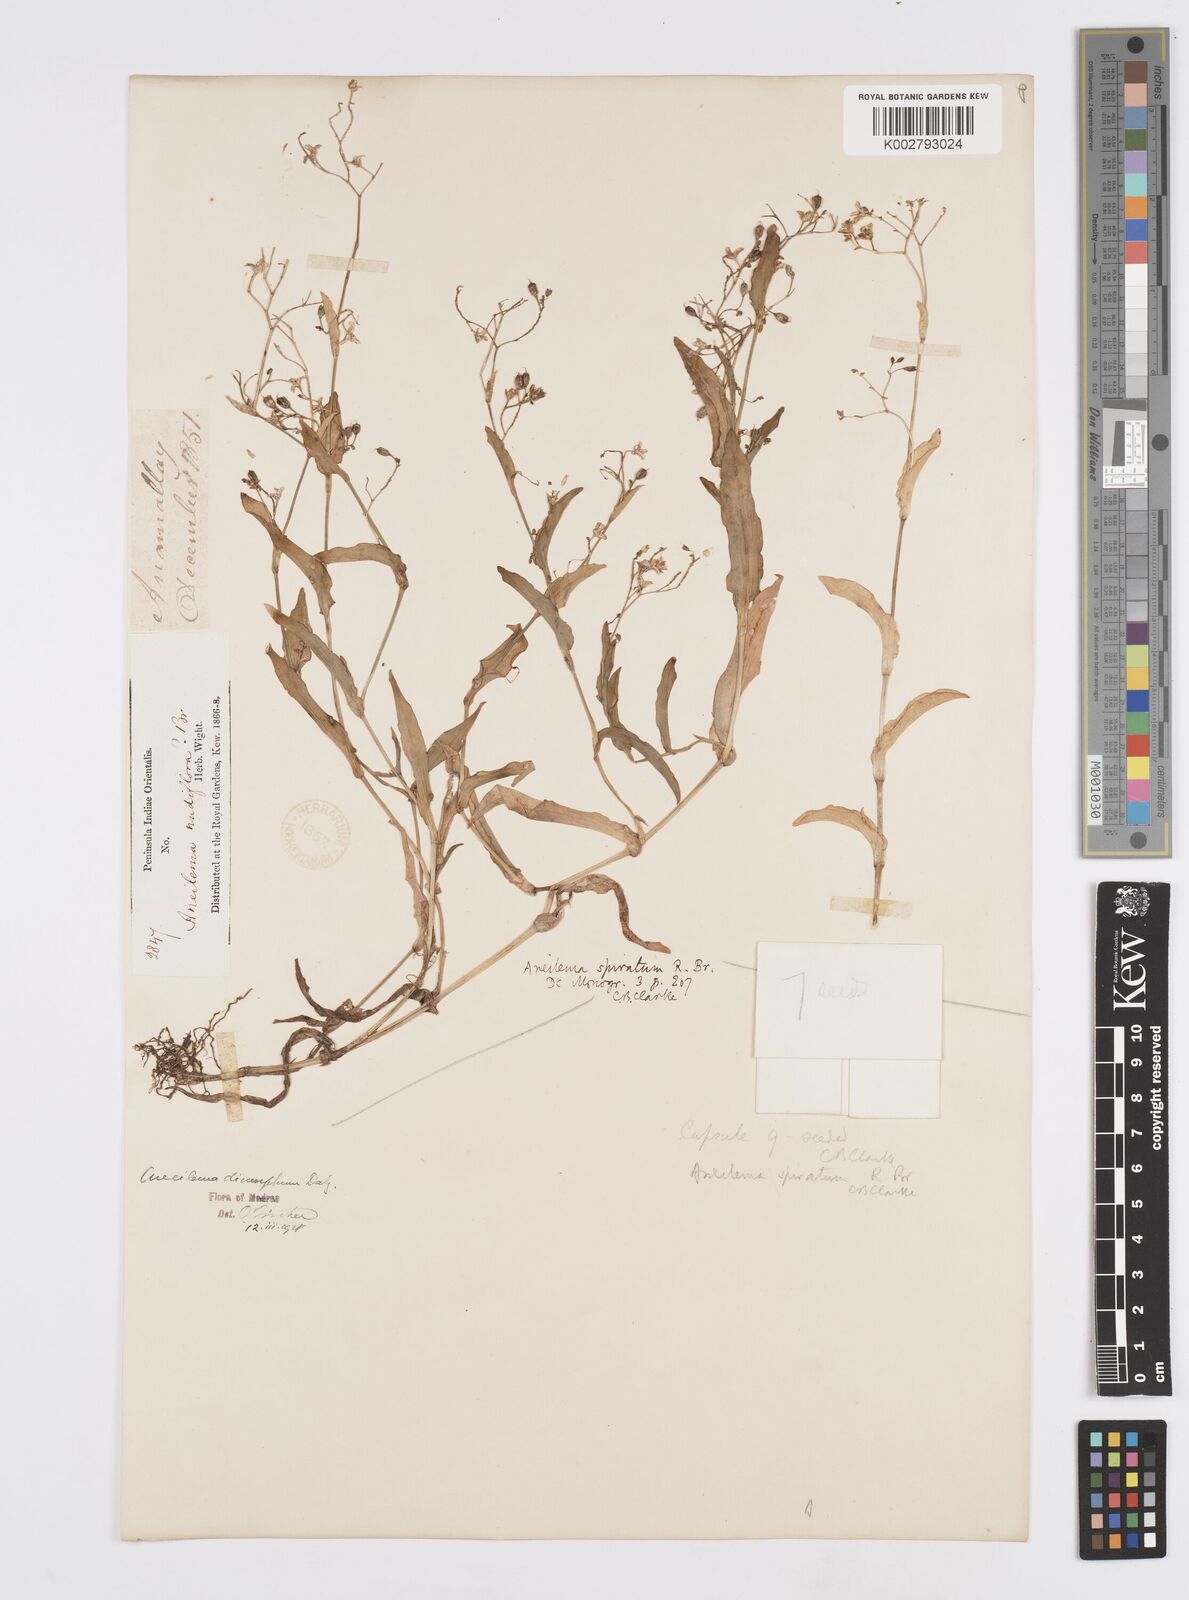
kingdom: Plantae
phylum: Tracheophyta
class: Liliopsida
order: Commelinales
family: Commelinaceae
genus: Murdannia
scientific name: Murdannia dimorpha
